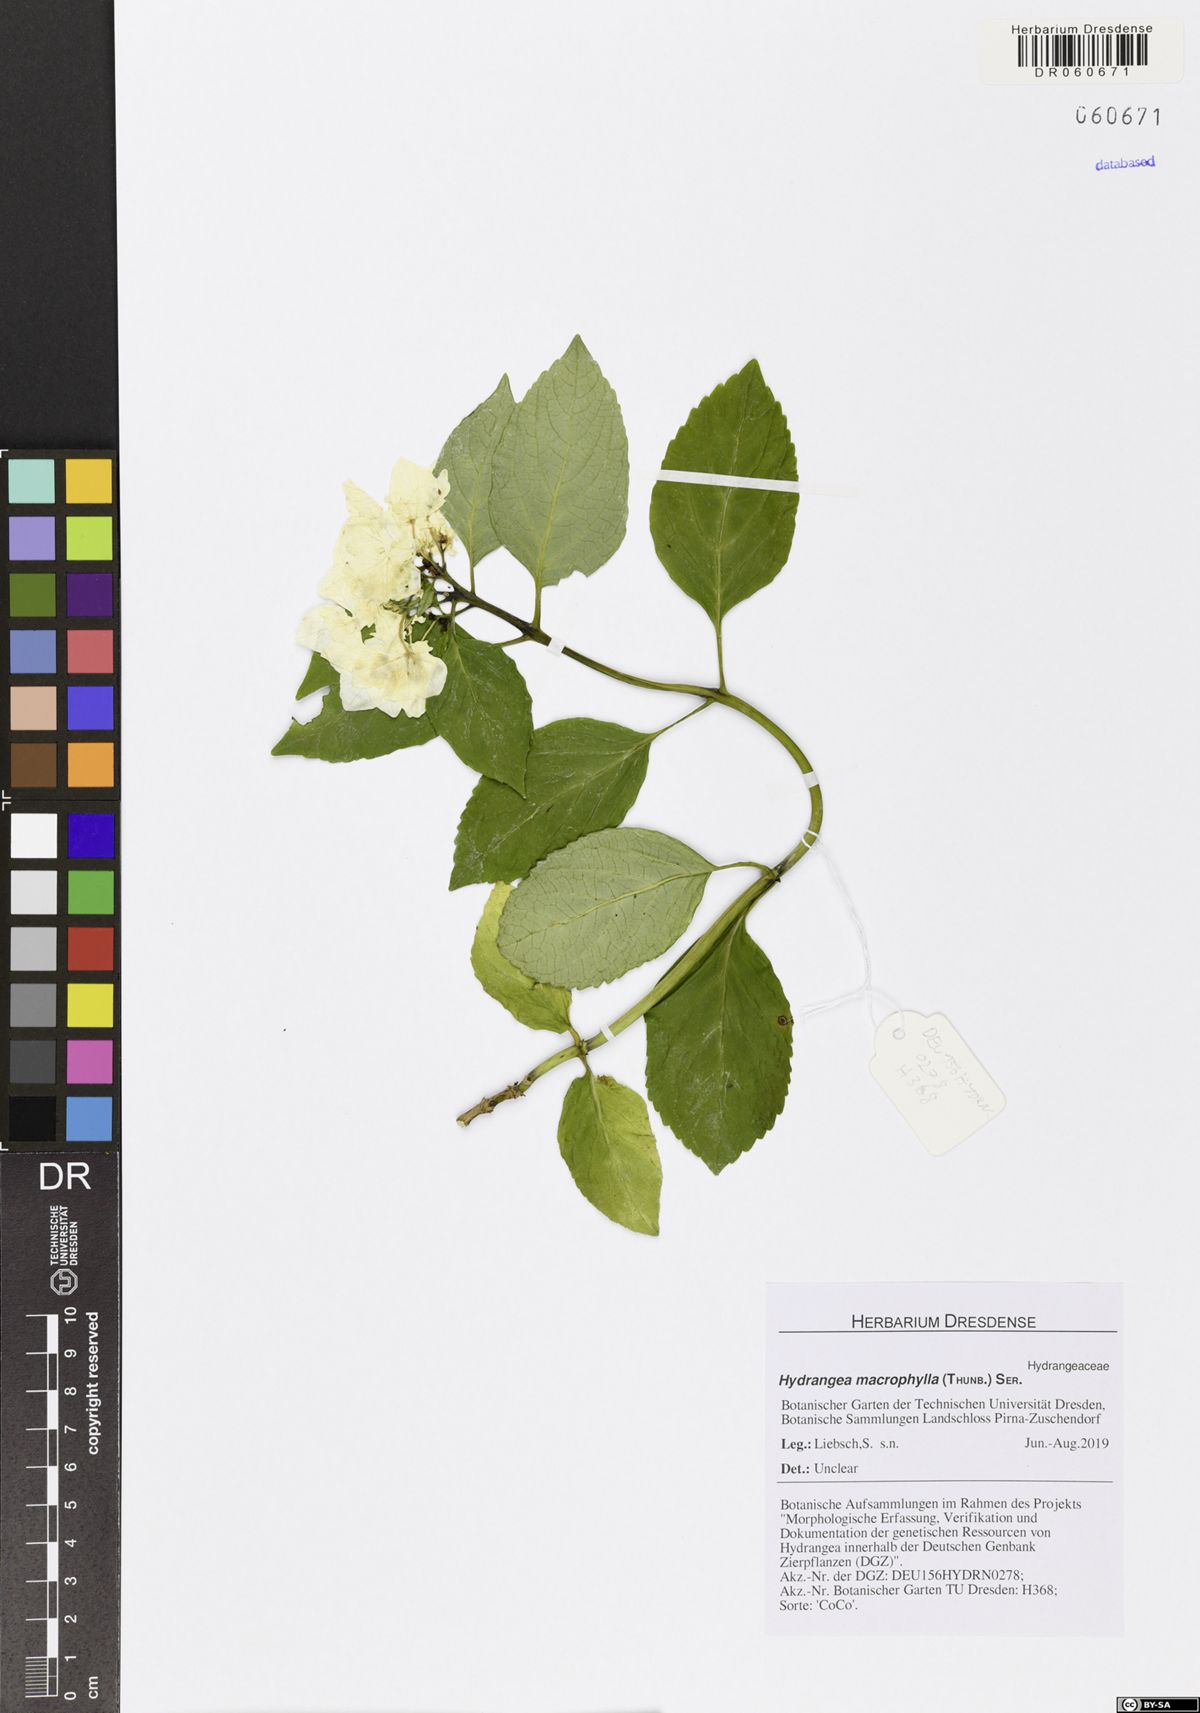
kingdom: Plantae
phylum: Tracheophyta
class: Magnoliopsida
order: Cornales
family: Hydrangeaceae
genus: Hydrangea
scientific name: Hydrangea macrophylla
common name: Hydrangea
